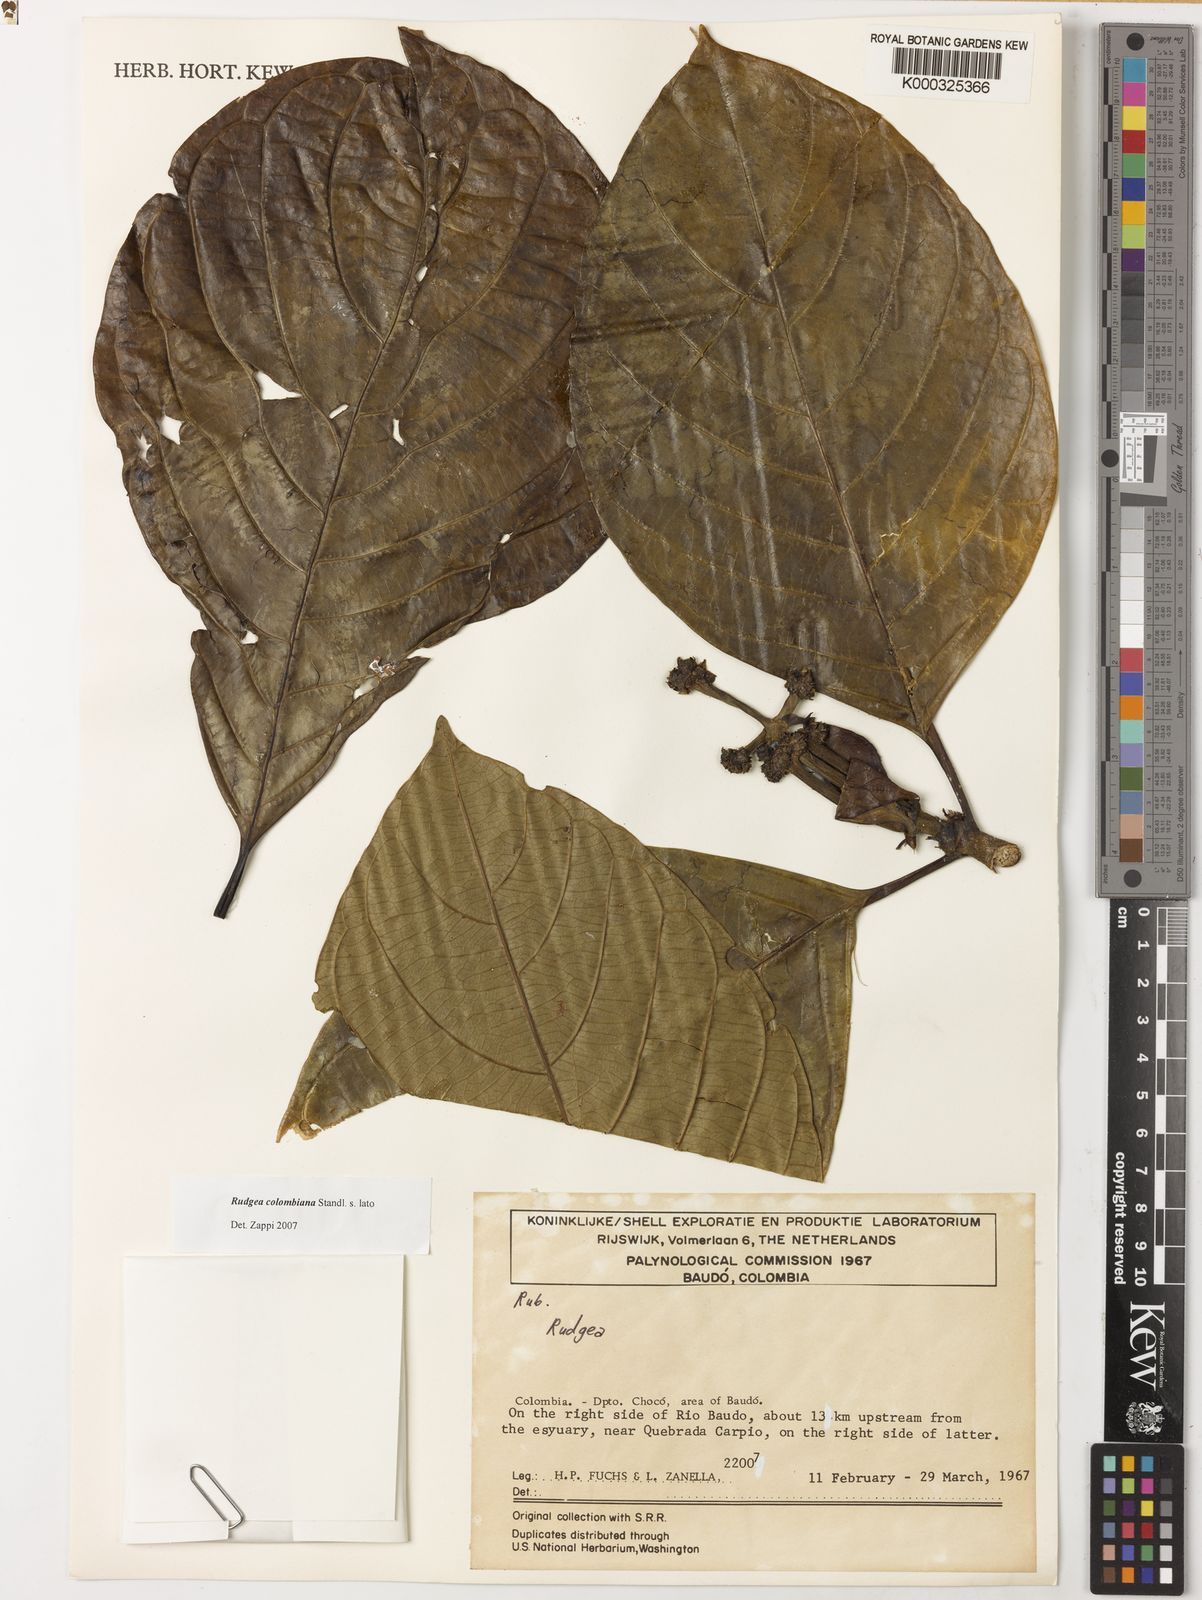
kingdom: Plantae
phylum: Tracheophyta
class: Magnoliopsida
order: Gentianales
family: Rubiaceae
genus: Rudgea
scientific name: Rudgea colombiana
